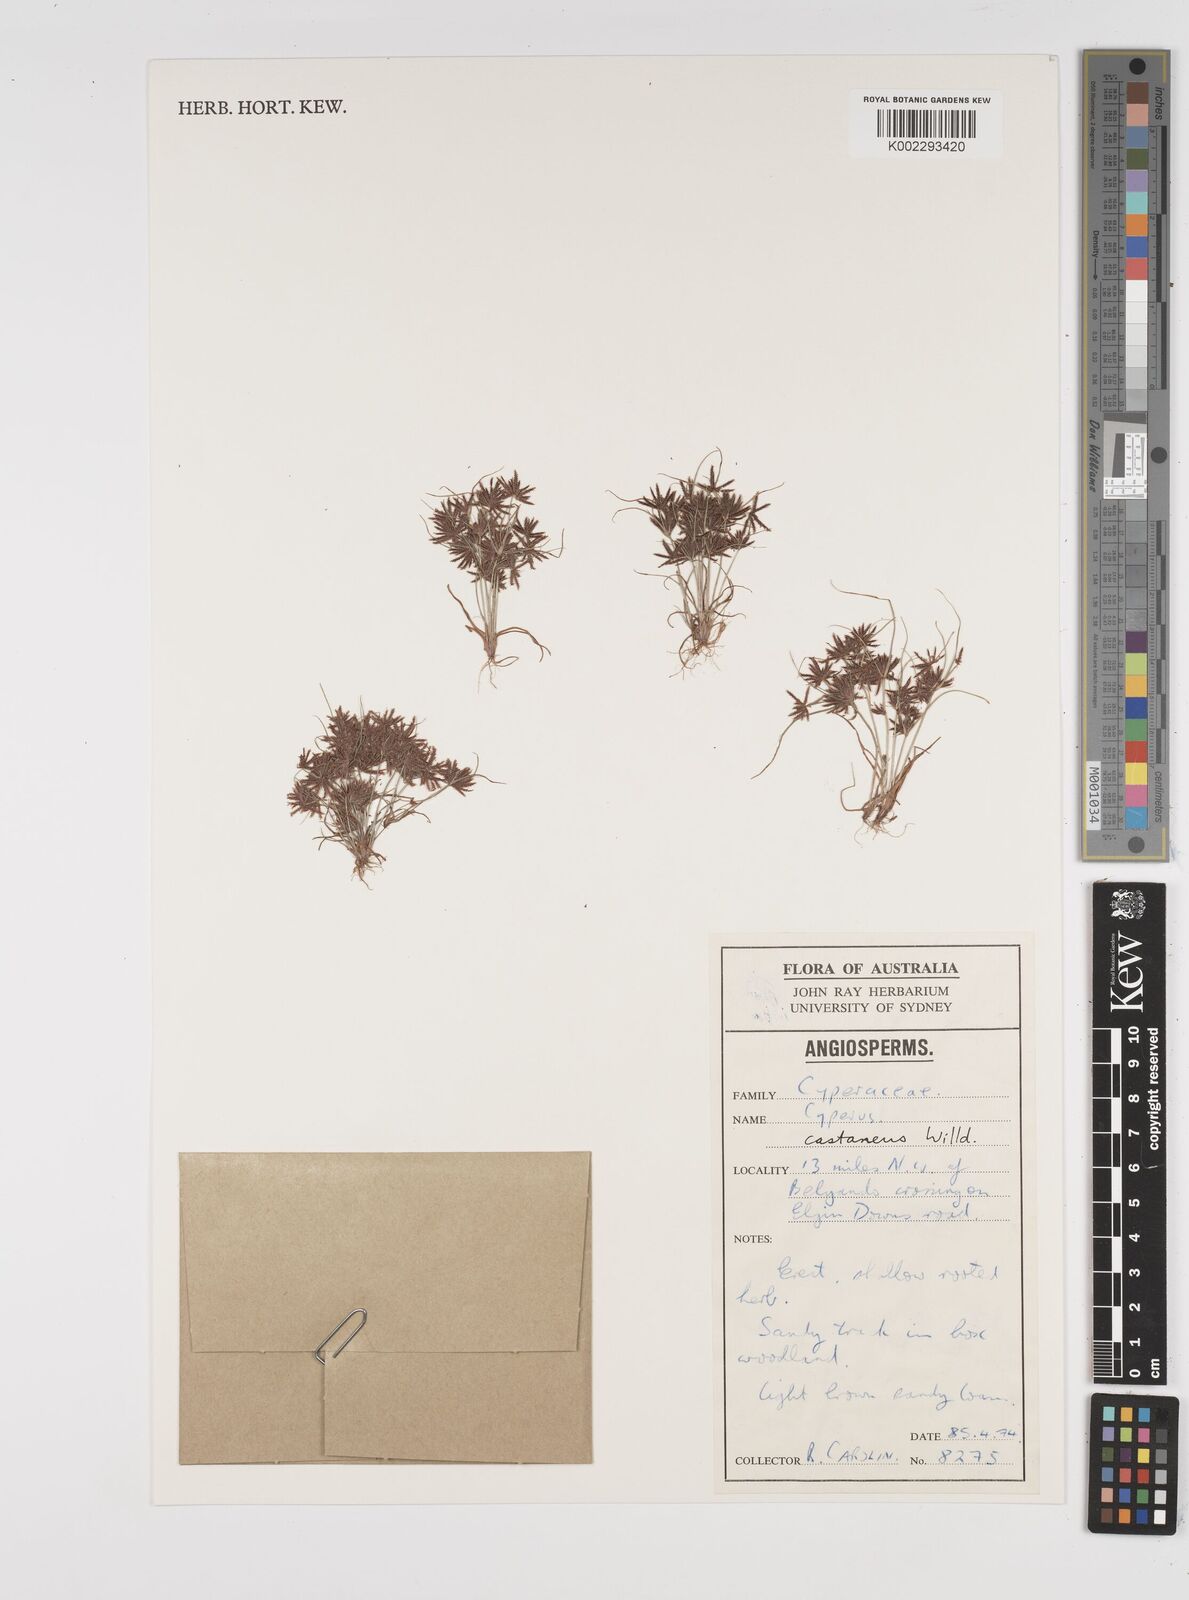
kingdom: Plantae
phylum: Tracheophyta
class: Liliopsida
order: Poales
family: Cyperaceae
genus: Cyperus
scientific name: Cyperus castaneus
